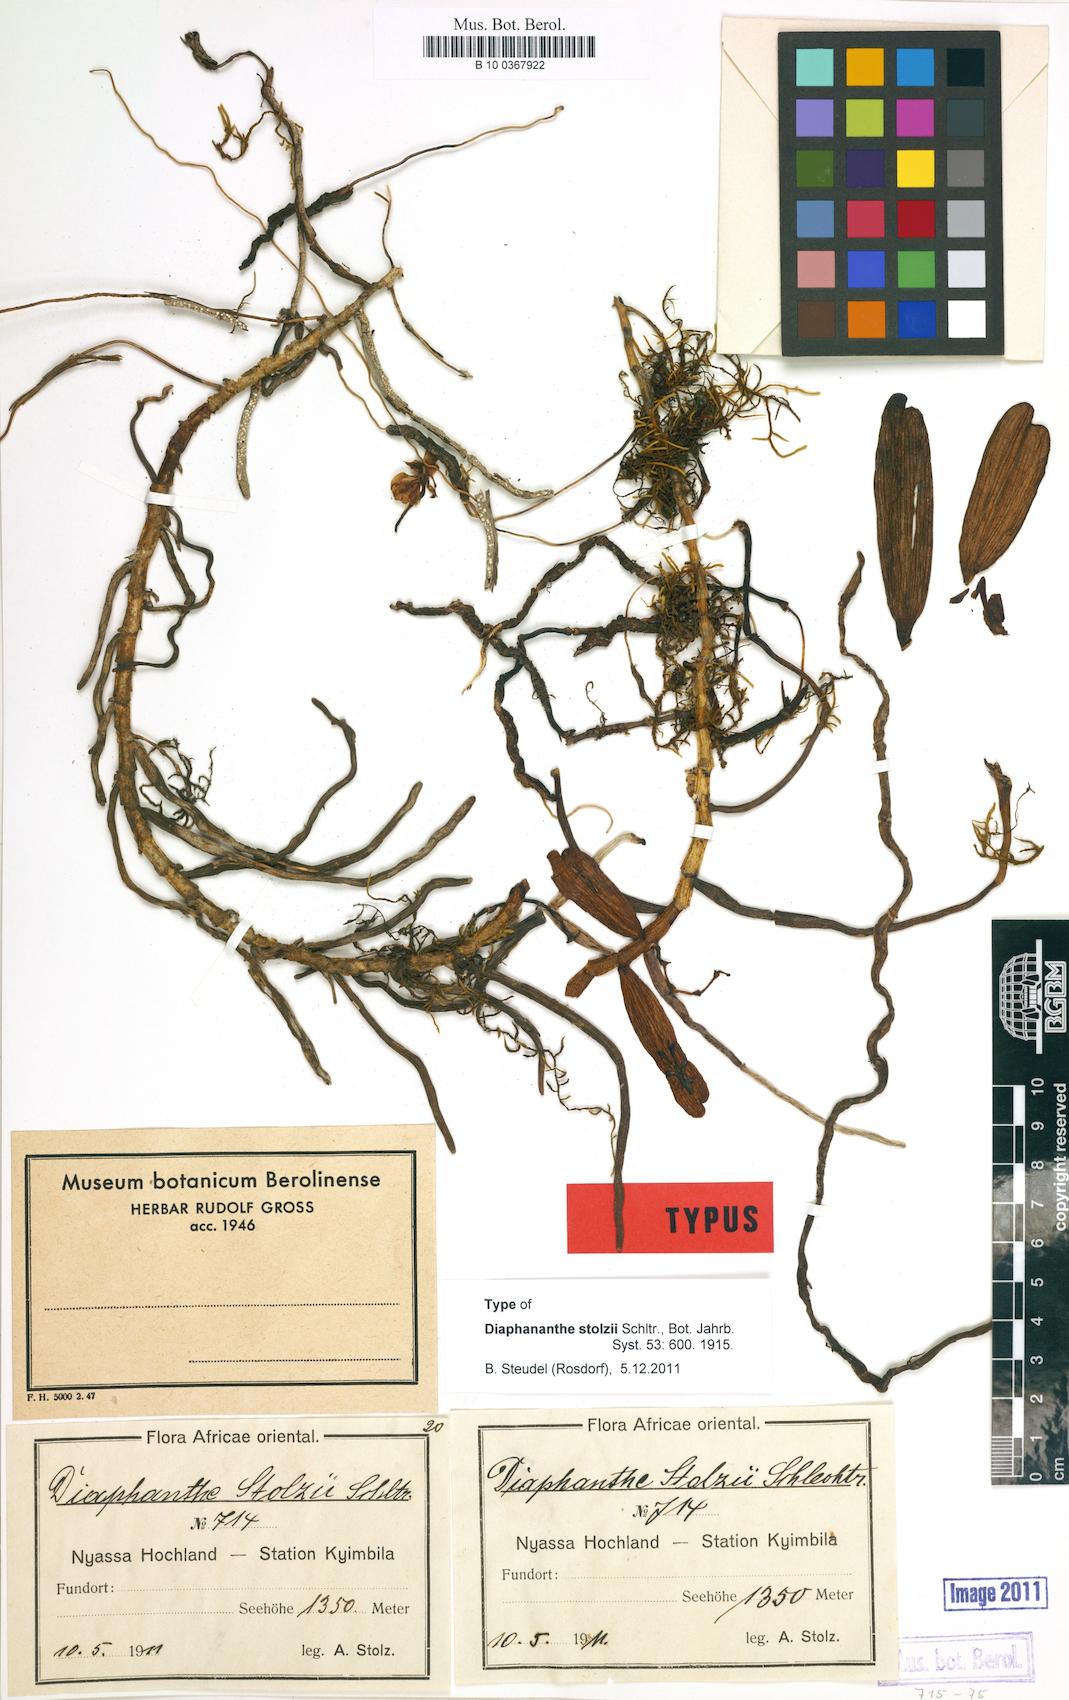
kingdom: Plantae
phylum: Tracheophyta
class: Liliopsida
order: Asparagales
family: Orchidaceae
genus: Rhipidoglossum
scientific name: Rhipidoglossum stolzii
